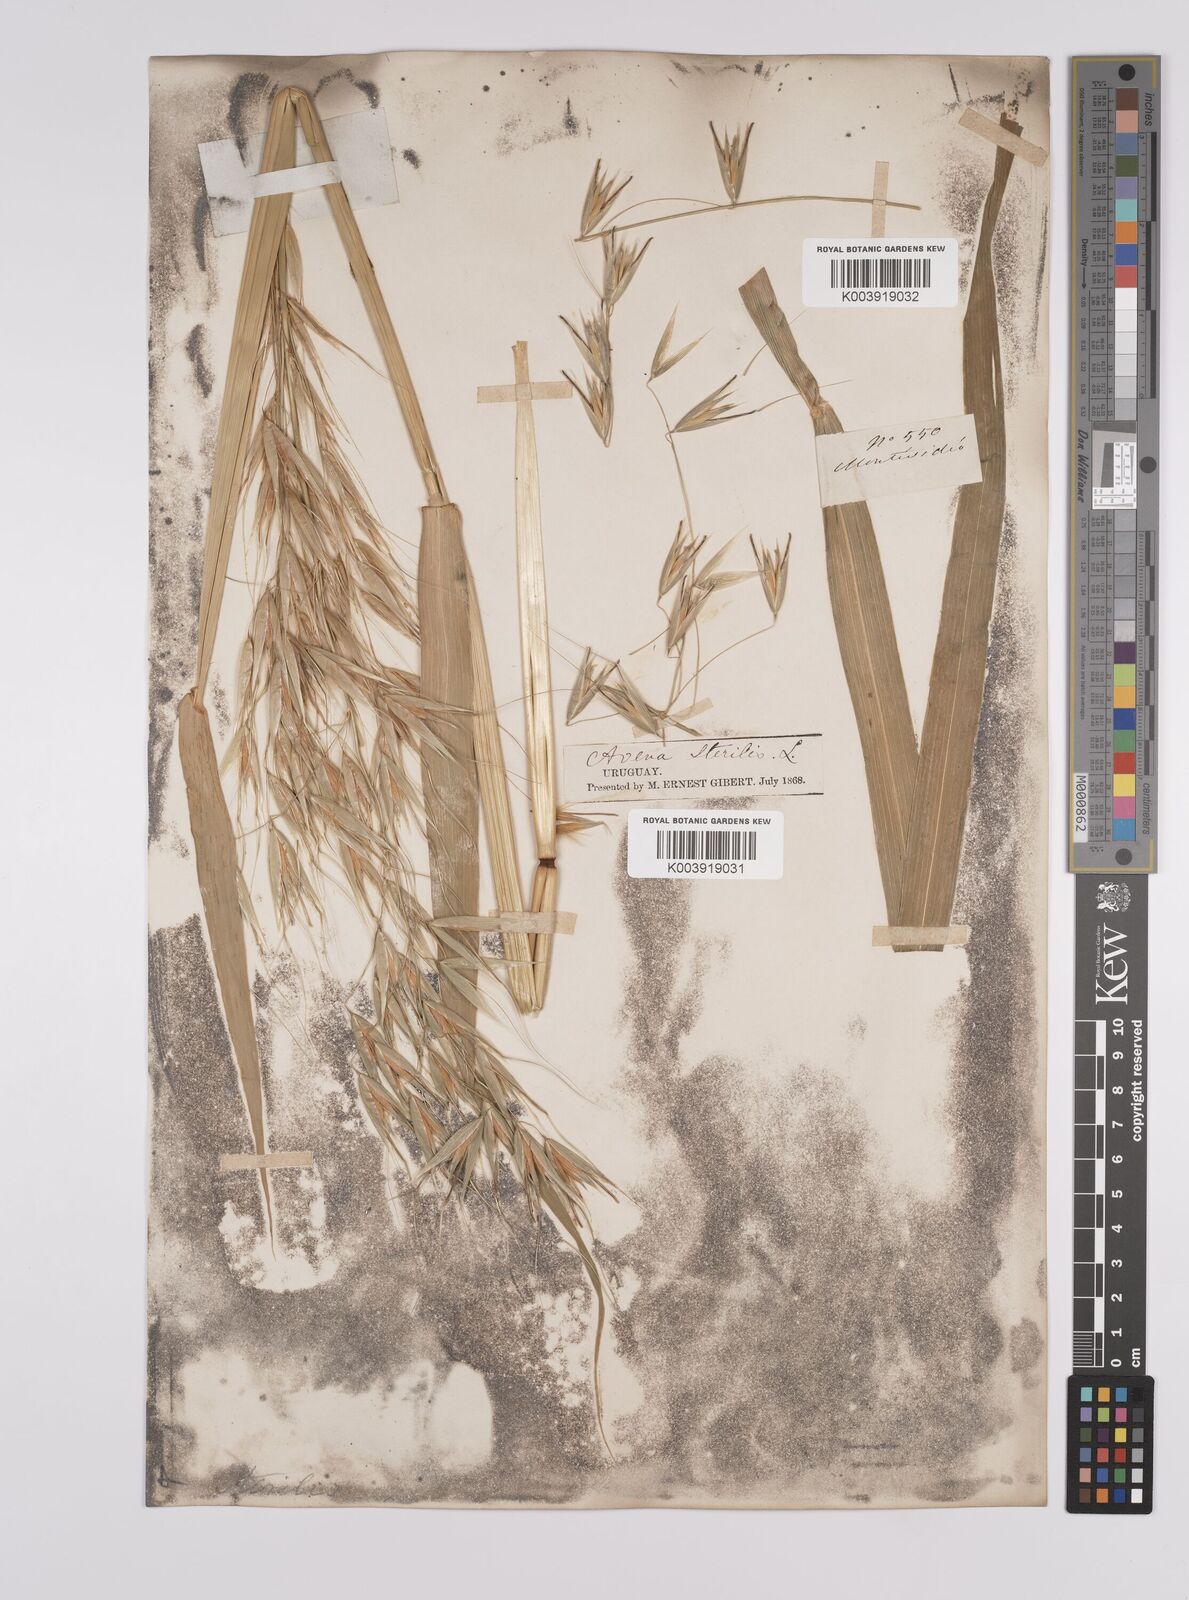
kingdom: Plantae
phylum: Tracheophyta
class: Liliopsida
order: Poales
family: Poaceae
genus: Avena
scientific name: Avena sterilis
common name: Animated oat
